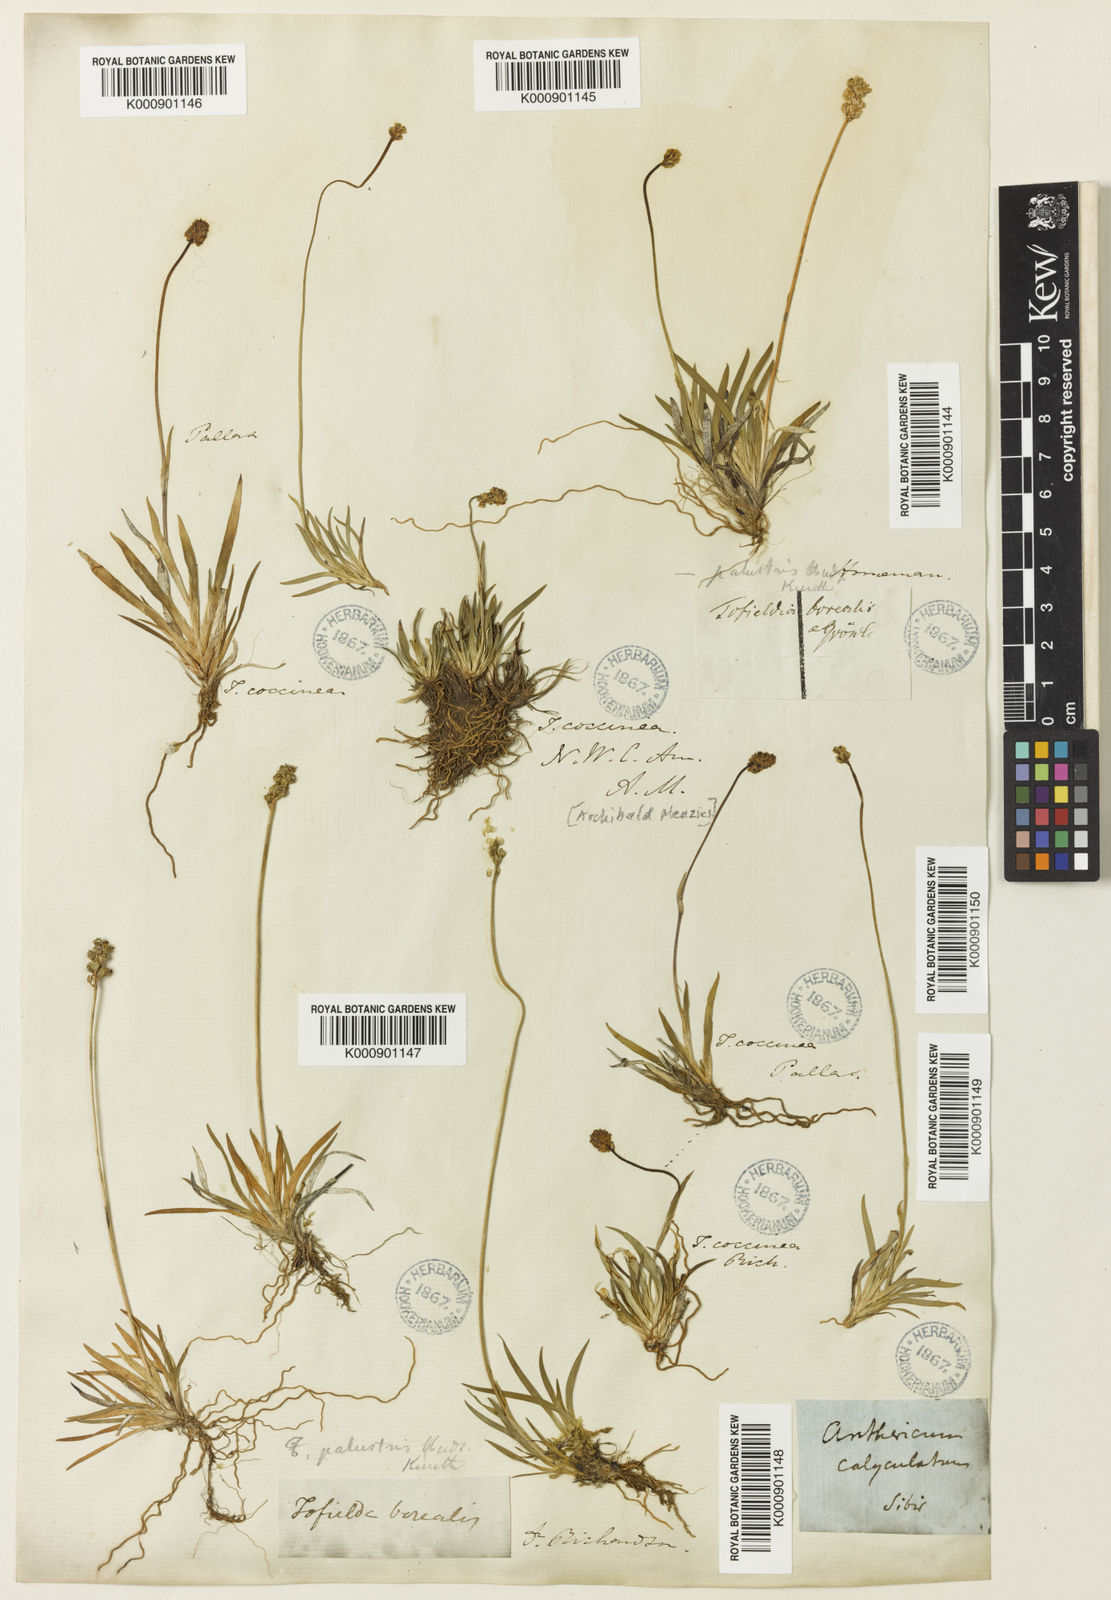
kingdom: Plantae
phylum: Tracheophyta
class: Liliopsida
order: Alismatales
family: Tofieldiaceae
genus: Tofieldia
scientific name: Tofieldia coccinea
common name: Northern false asphodel
